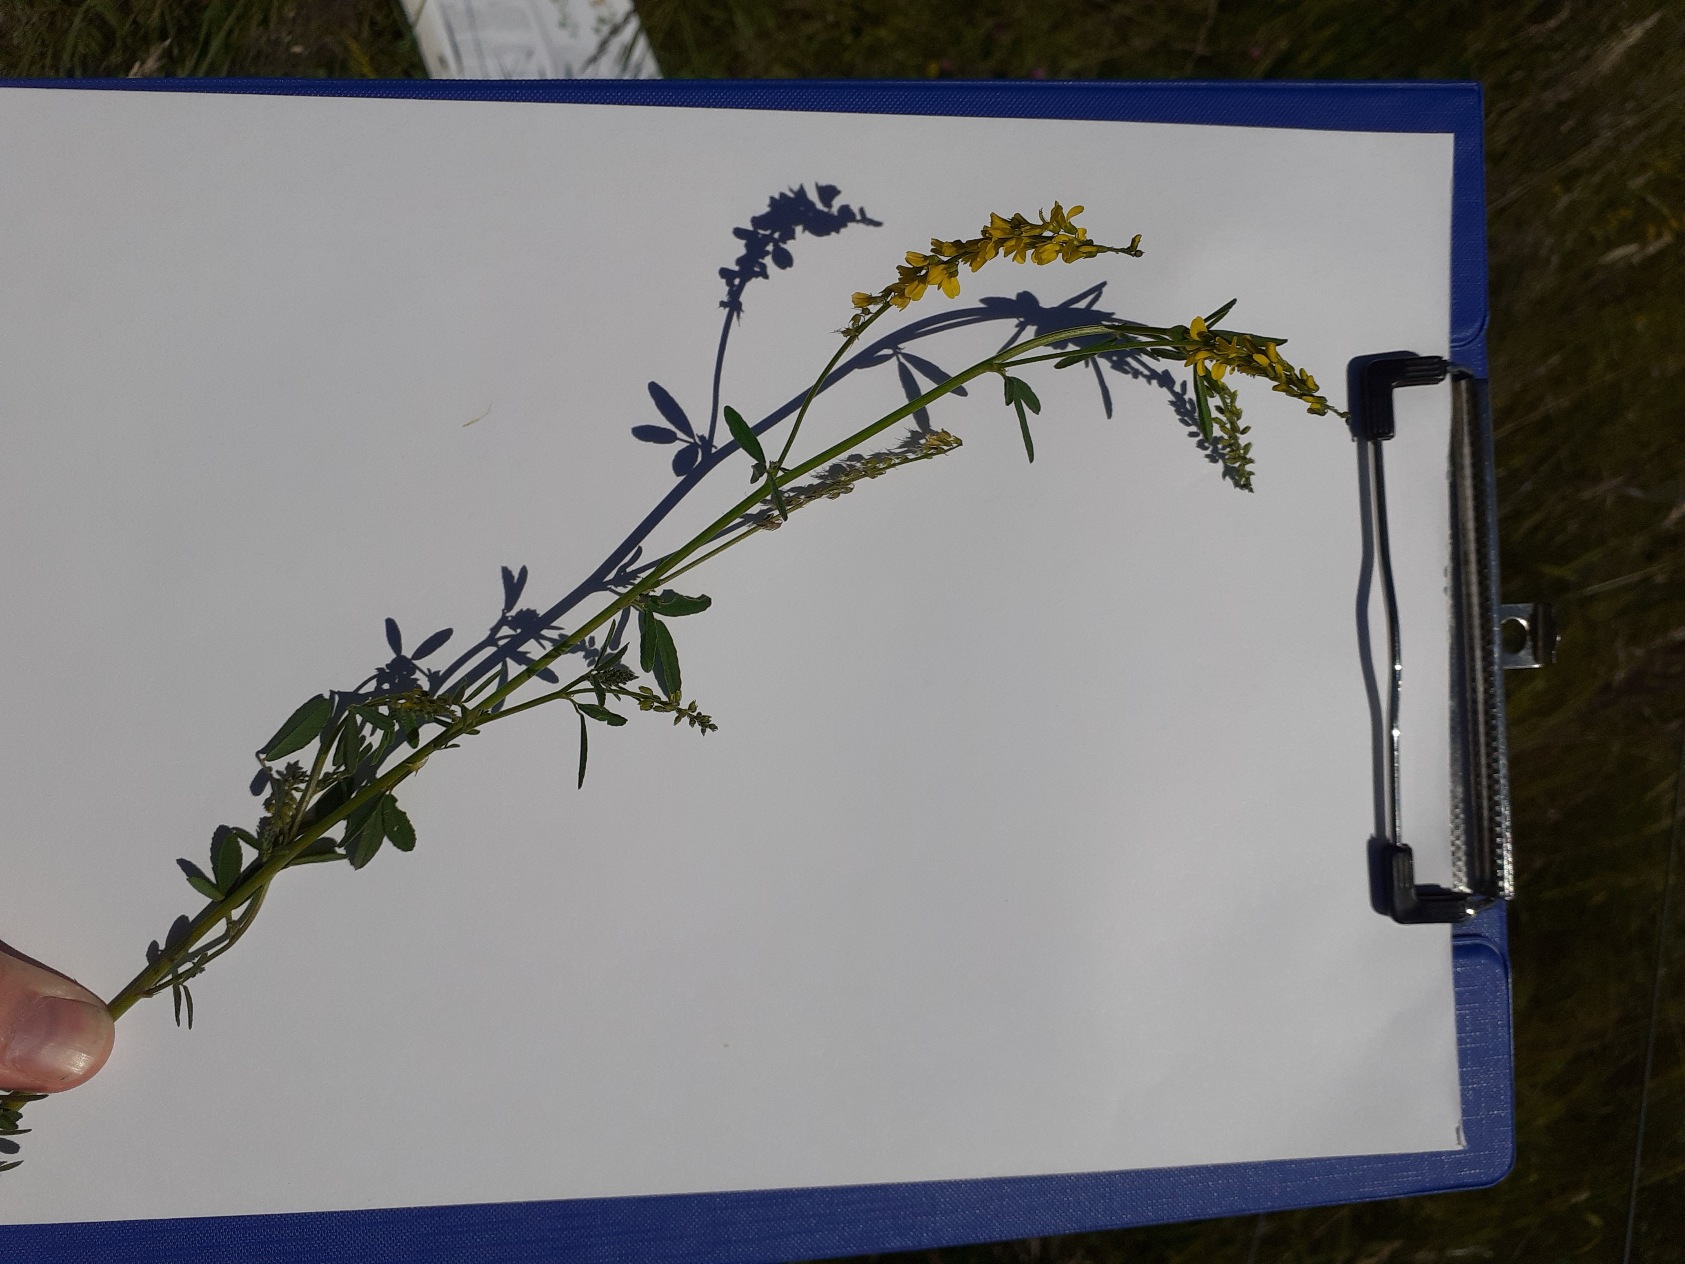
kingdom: Plantae
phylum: Tracheophyta
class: Magnoliopsida
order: Fabales
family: Fabaceae
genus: Melilotus
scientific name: Melilotus altissimus
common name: Høj stenkløver
